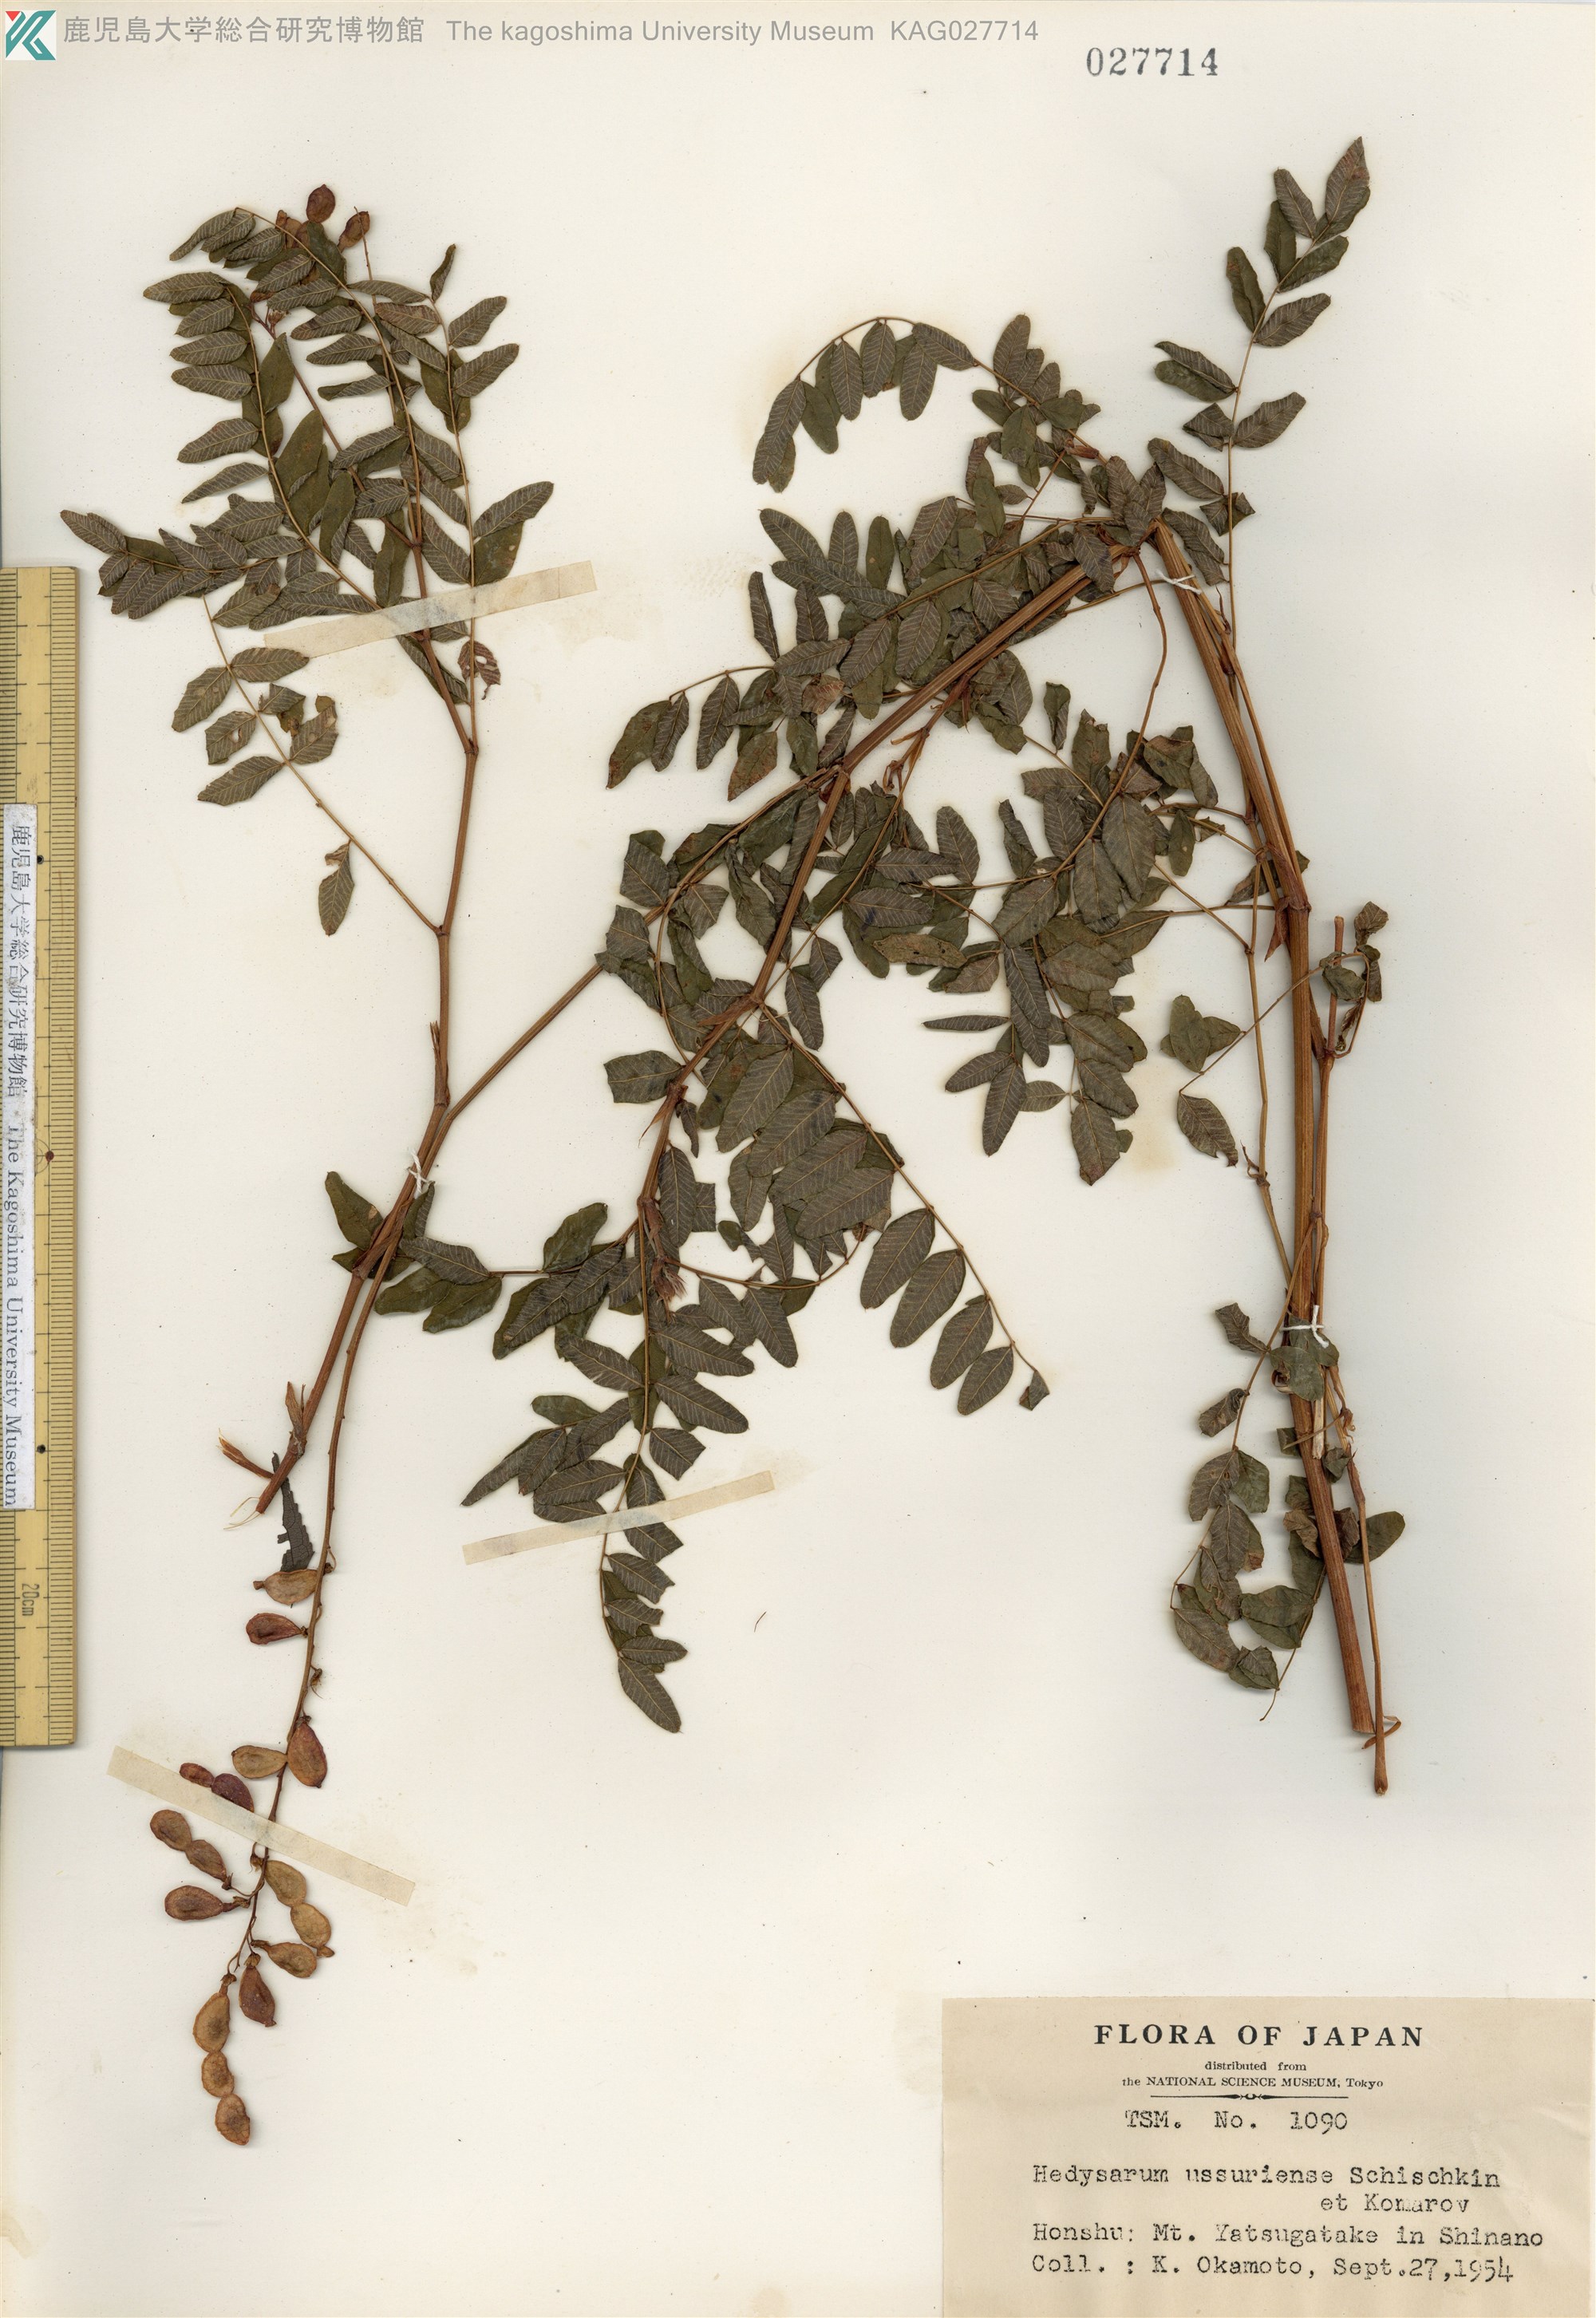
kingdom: Plantae
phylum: Tracheophyta
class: Magnoliopsida
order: Fabales
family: Fabaceae
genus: Hedysarum
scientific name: Hedysarum vicioides
